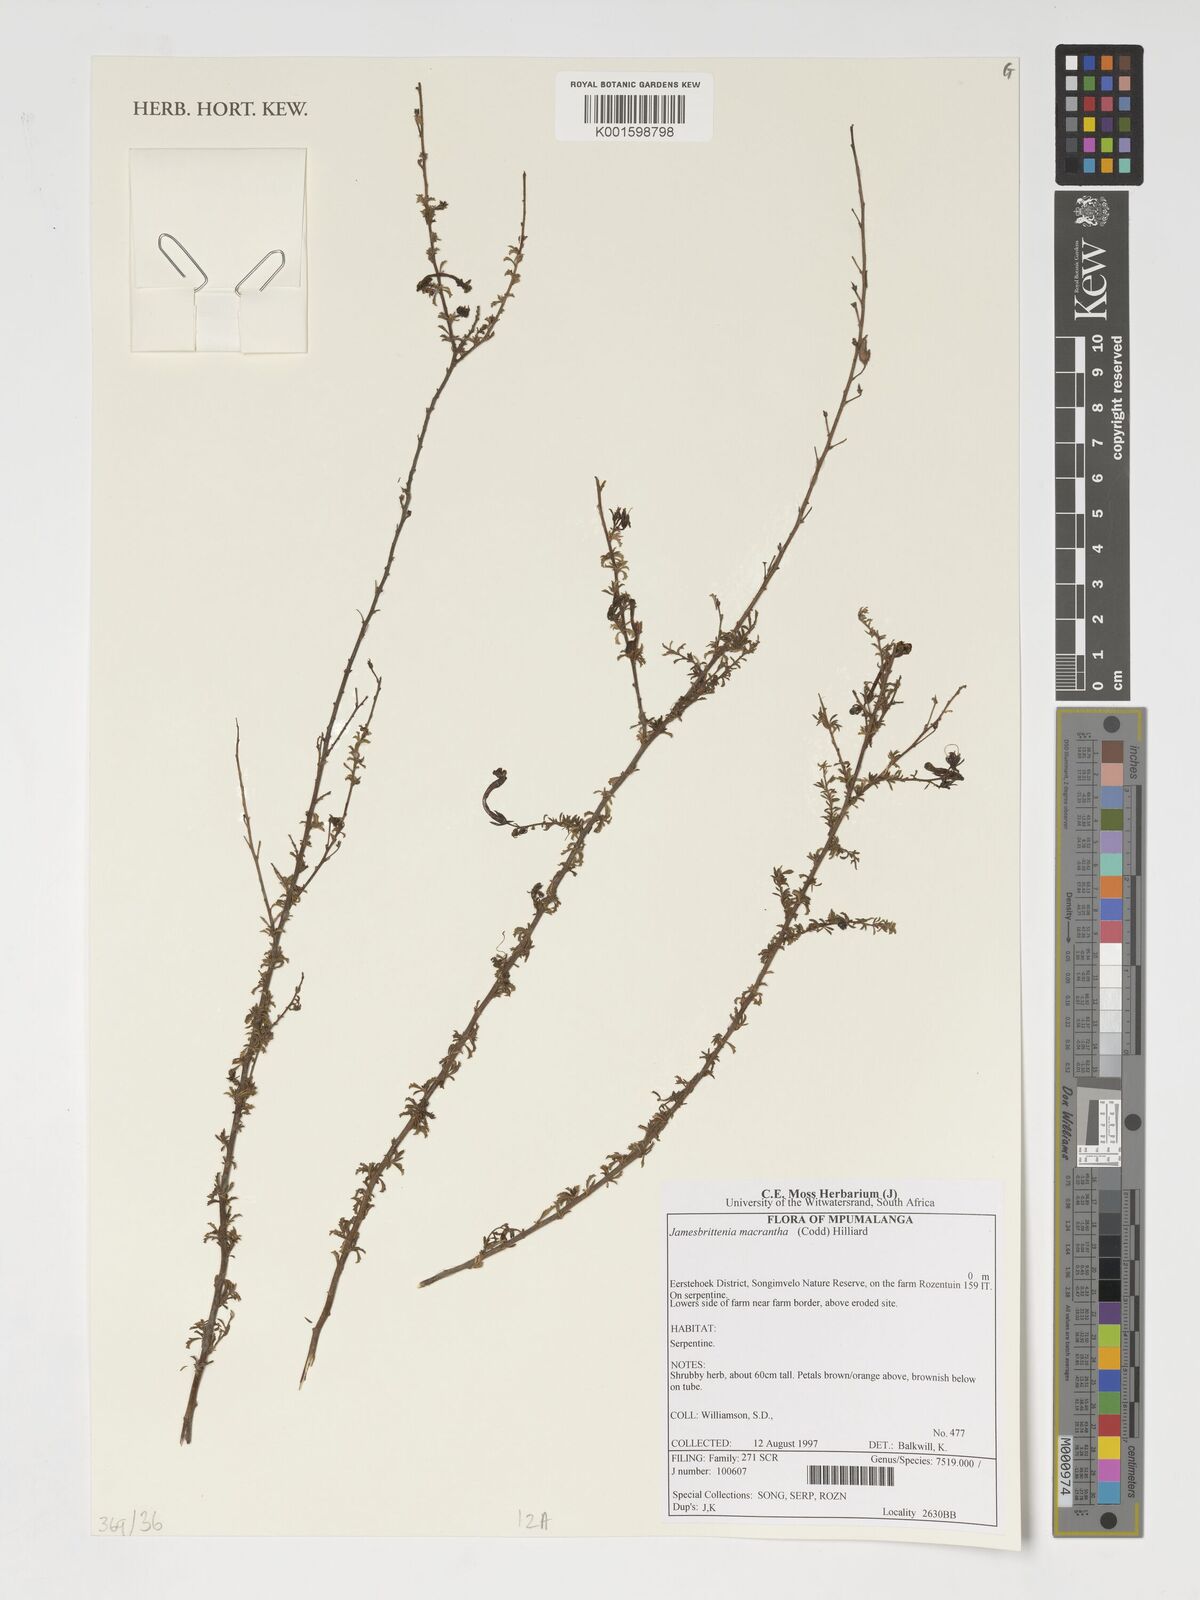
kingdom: Plantae
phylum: Tracheophyta
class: Magnoliopsida
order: Lamiales
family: Scrophulariaceae
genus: Jamesbrittenia
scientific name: Jamesbrittenia macrantha
